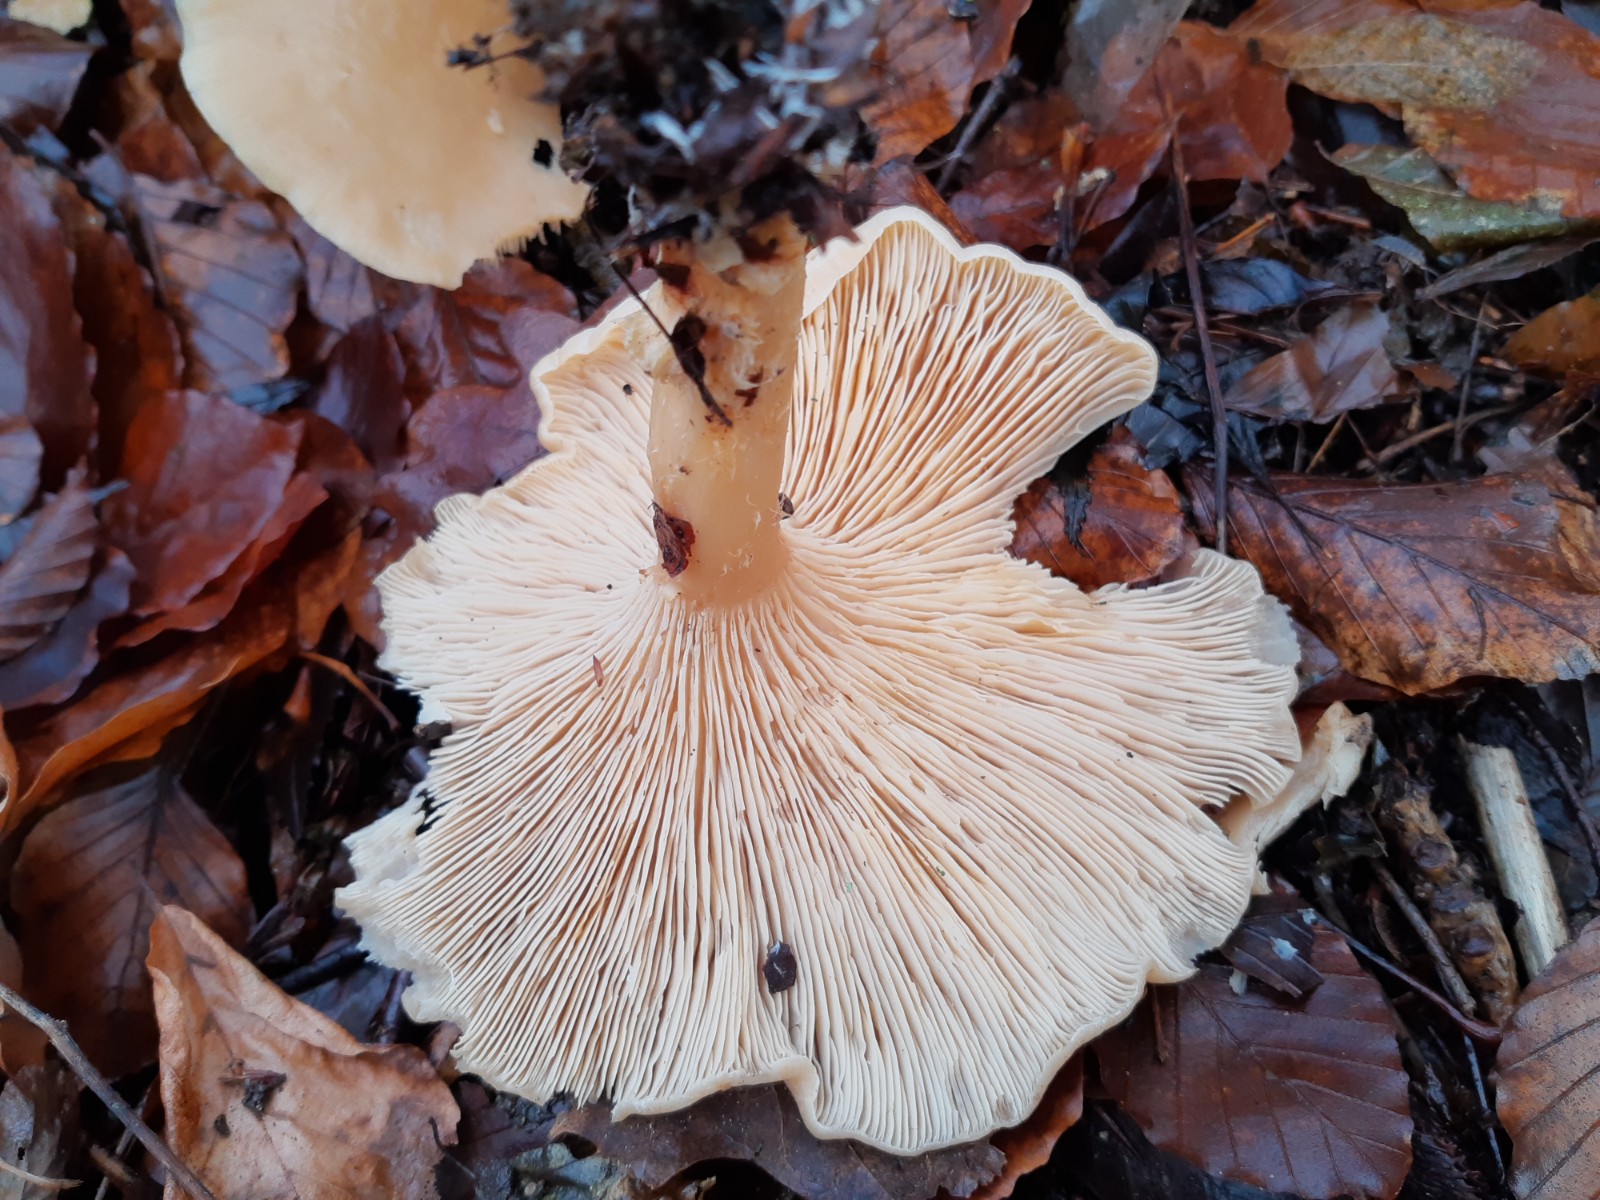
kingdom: Fungi
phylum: Basidiomycota
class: Agaricomycetes
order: Agaricales
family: Tricholomataceae
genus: Infundibulicybe
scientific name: Infundibulicybe geotropa
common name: stor tragthat
